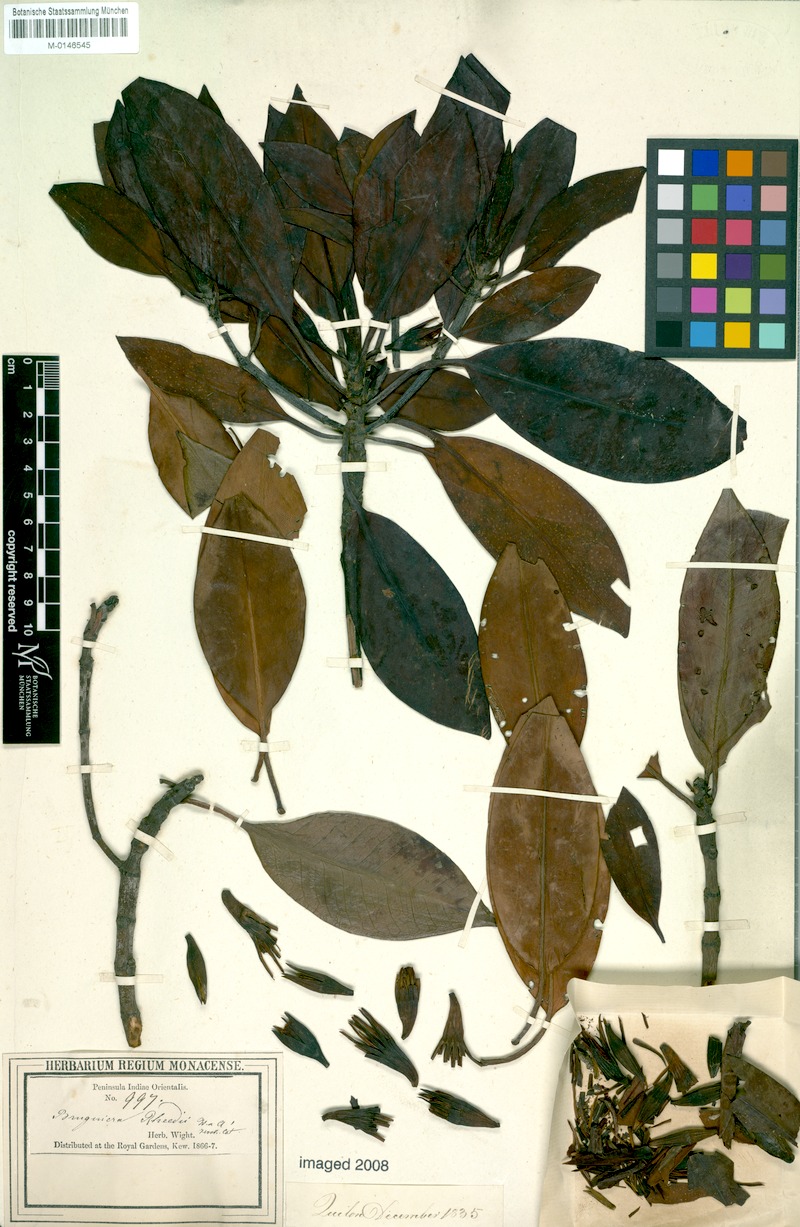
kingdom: Plantae
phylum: Tracheophyta
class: Magnoliopsida
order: Malpighiales
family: Rhizophoraceae
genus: Bruguiera
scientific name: Bruguiera gymnorhiza
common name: Oriental mangrove
